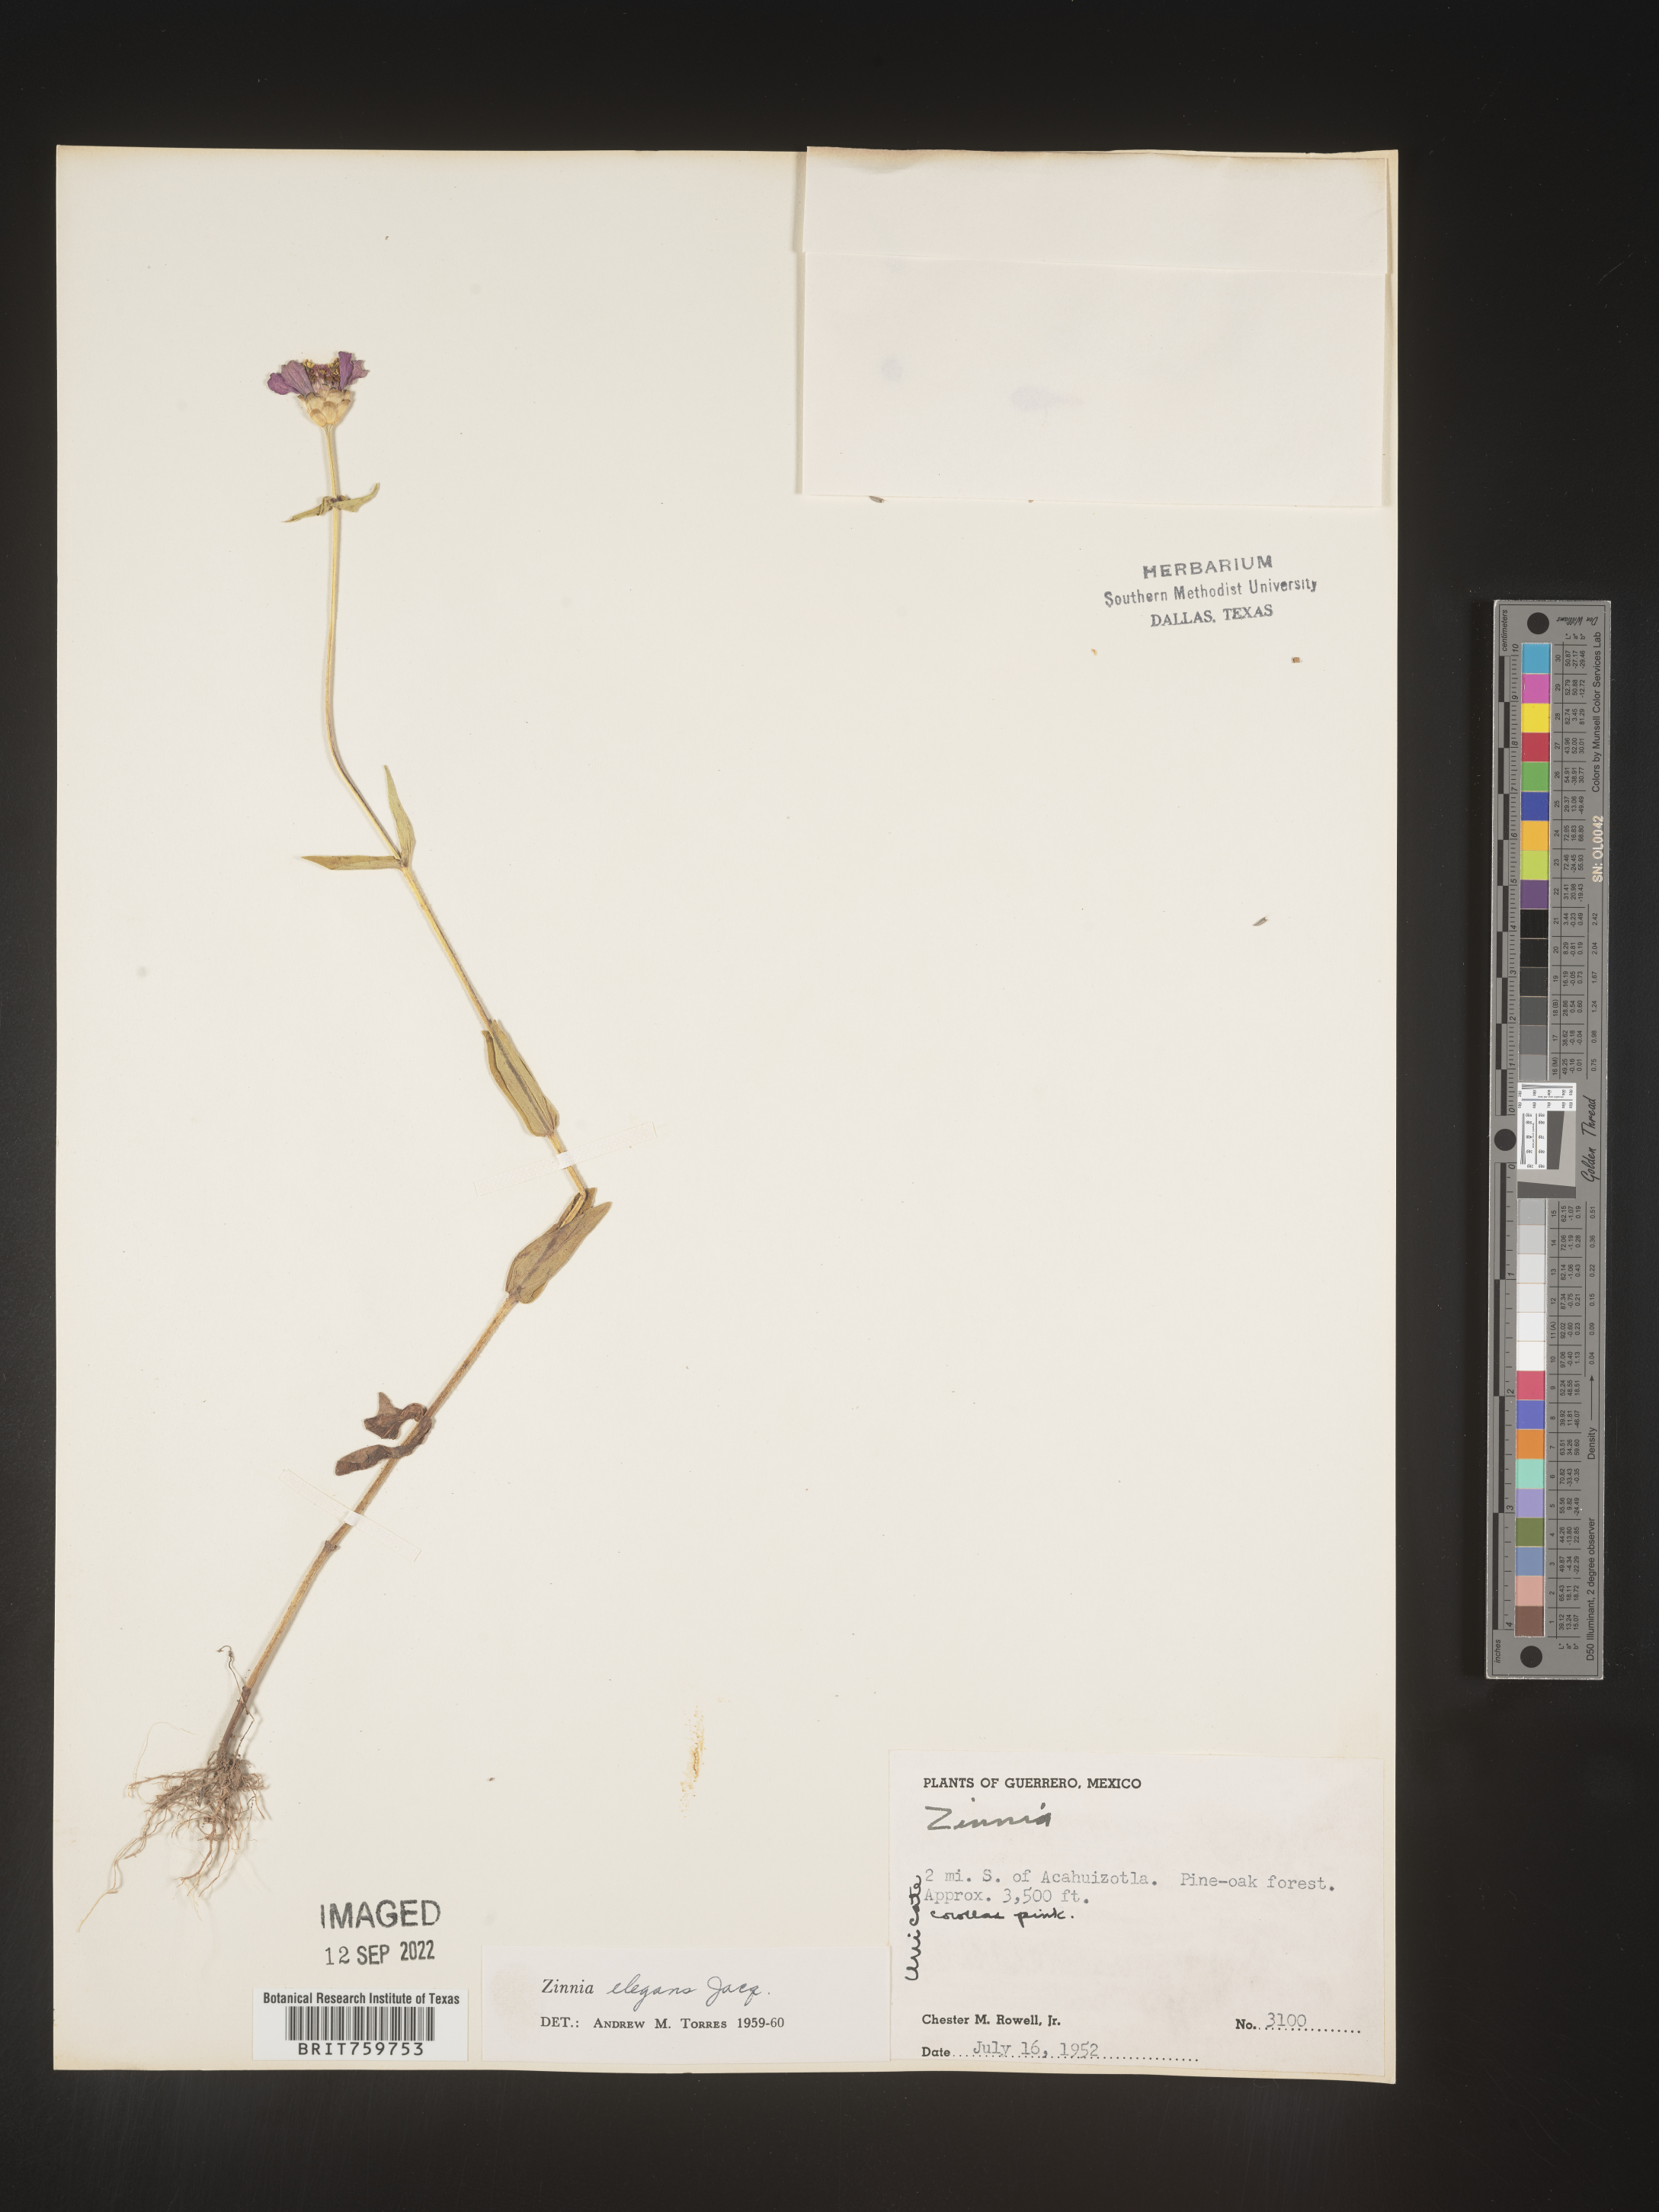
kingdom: Plantae
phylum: Tracheophyta
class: Magnoliopsida
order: Asterales
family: Asteraceae
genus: Zinnia
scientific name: Zinnia
